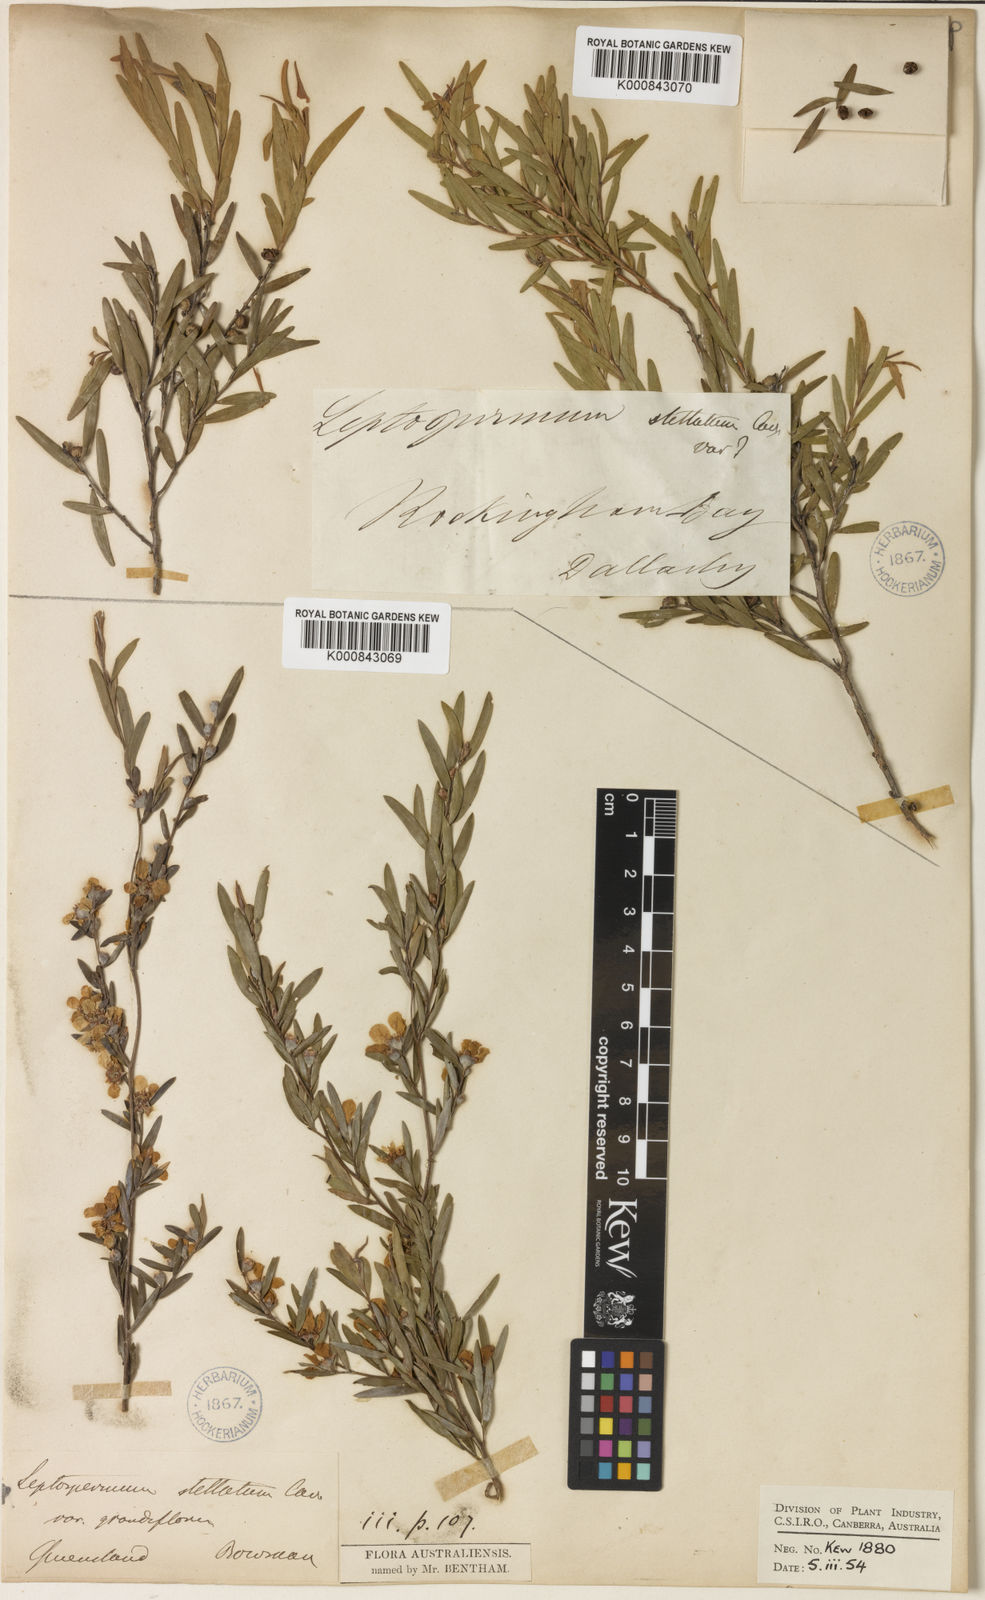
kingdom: Plantae
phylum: Tracheophyta
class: Magnoliopsida
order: Myrtales
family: Myrtaceae
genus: Leptospermum
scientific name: Leptospermum trinervium
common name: Flaky-barked tea-tree
